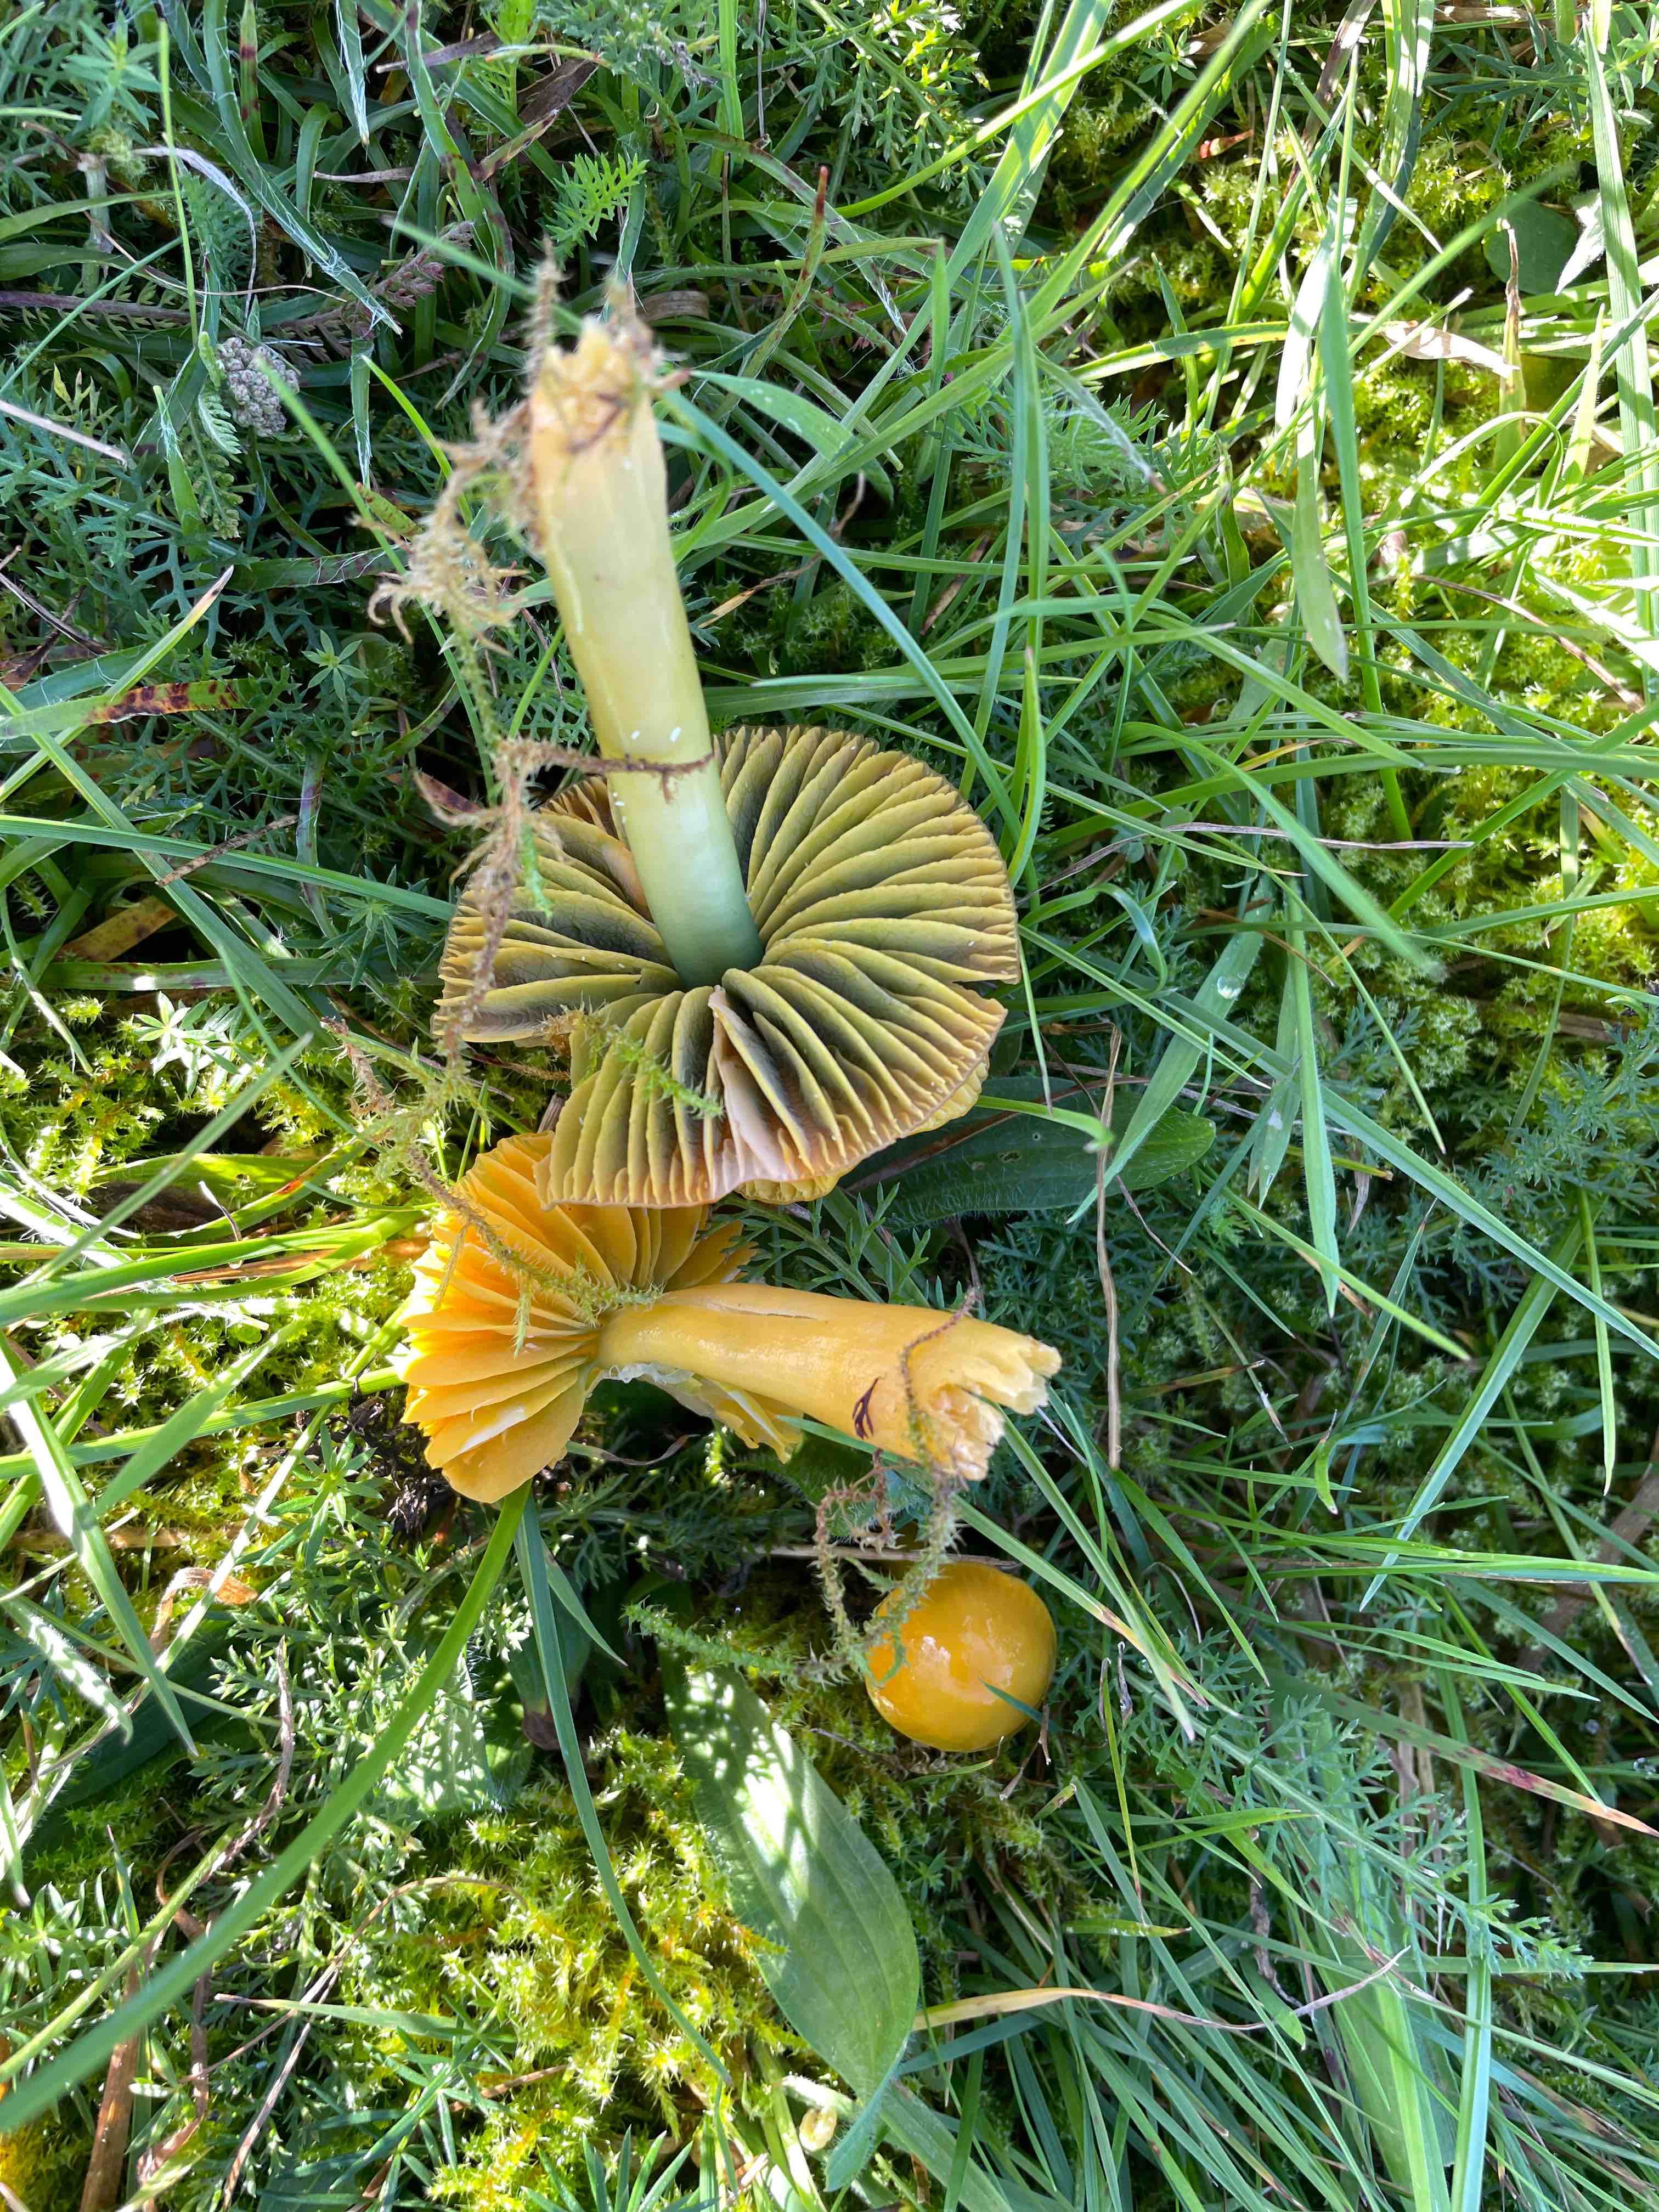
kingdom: Fungi
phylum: Basidiomycota
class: Agaricomycetes
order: Agaricales
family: Hygrophoraceae
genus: Gliophorus
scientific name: Gliophorus psittacinus
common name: papegøje-vokshat
